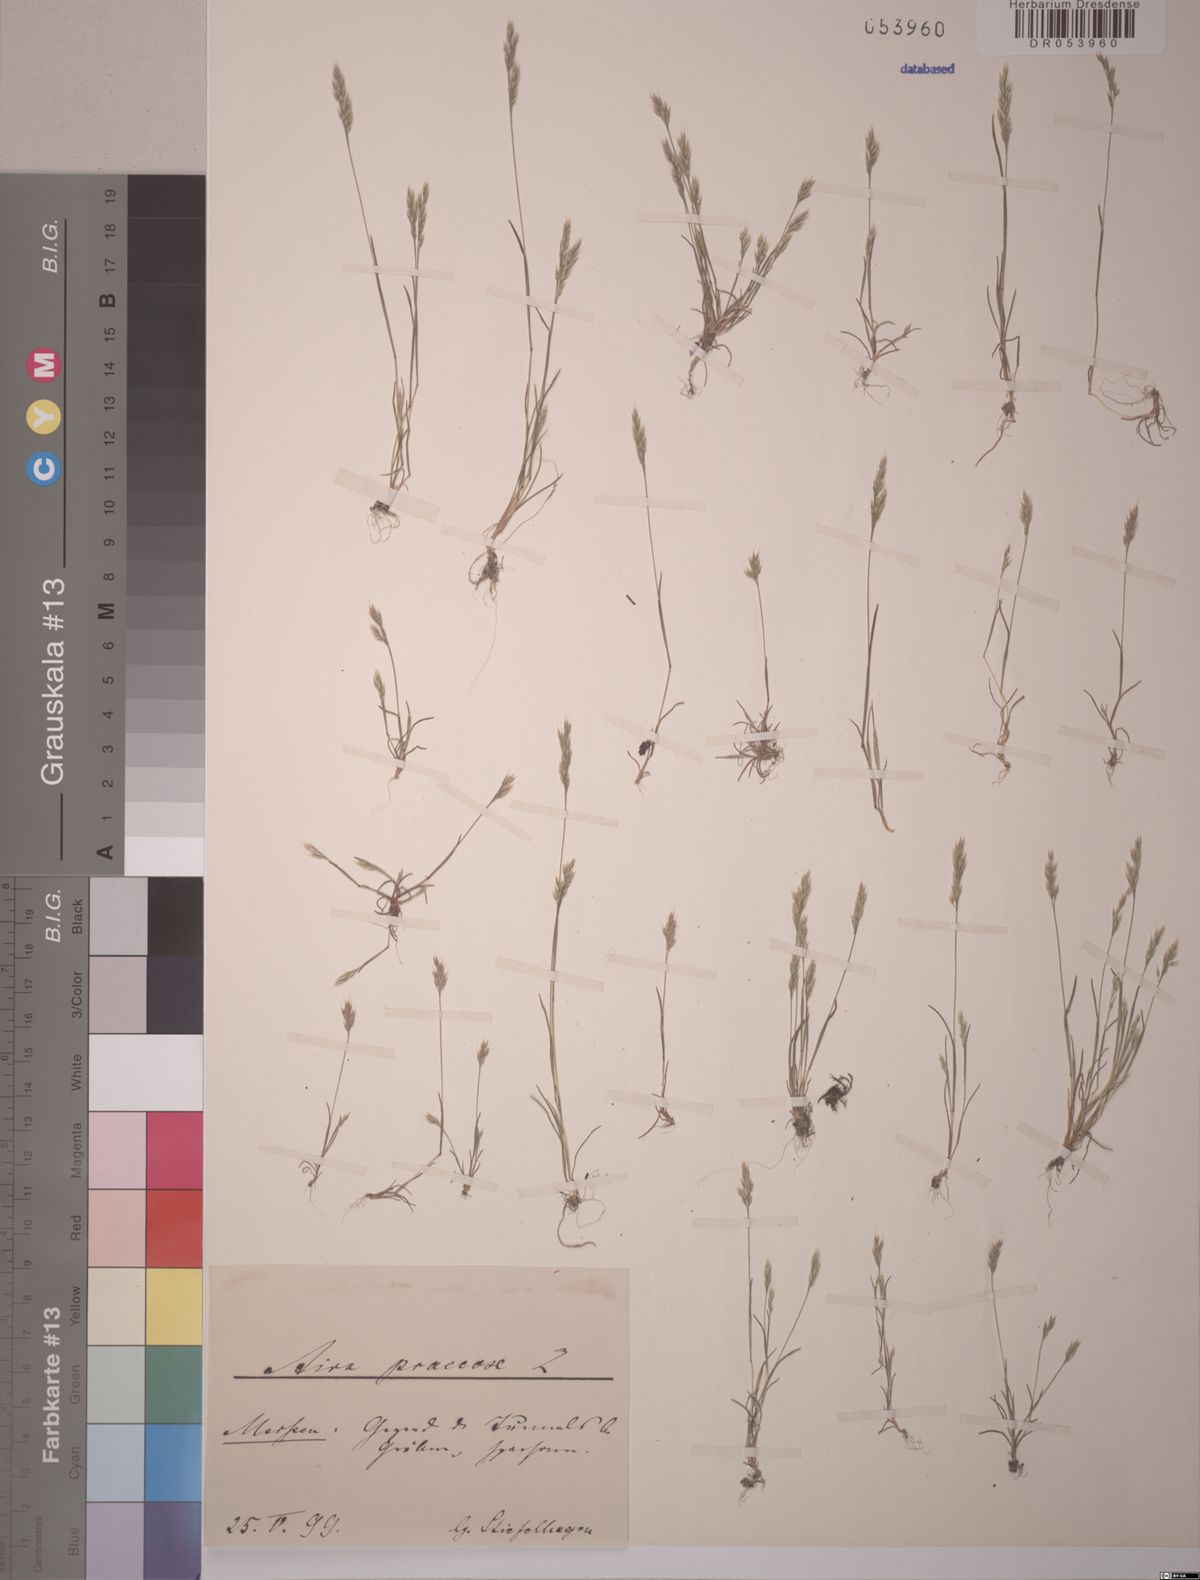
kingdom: Plantae
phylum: Tracheophyta
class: Liliopsida
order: Poales
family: Poaceae
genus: Aira
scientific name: Aira praecox
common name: Early hair-grass
